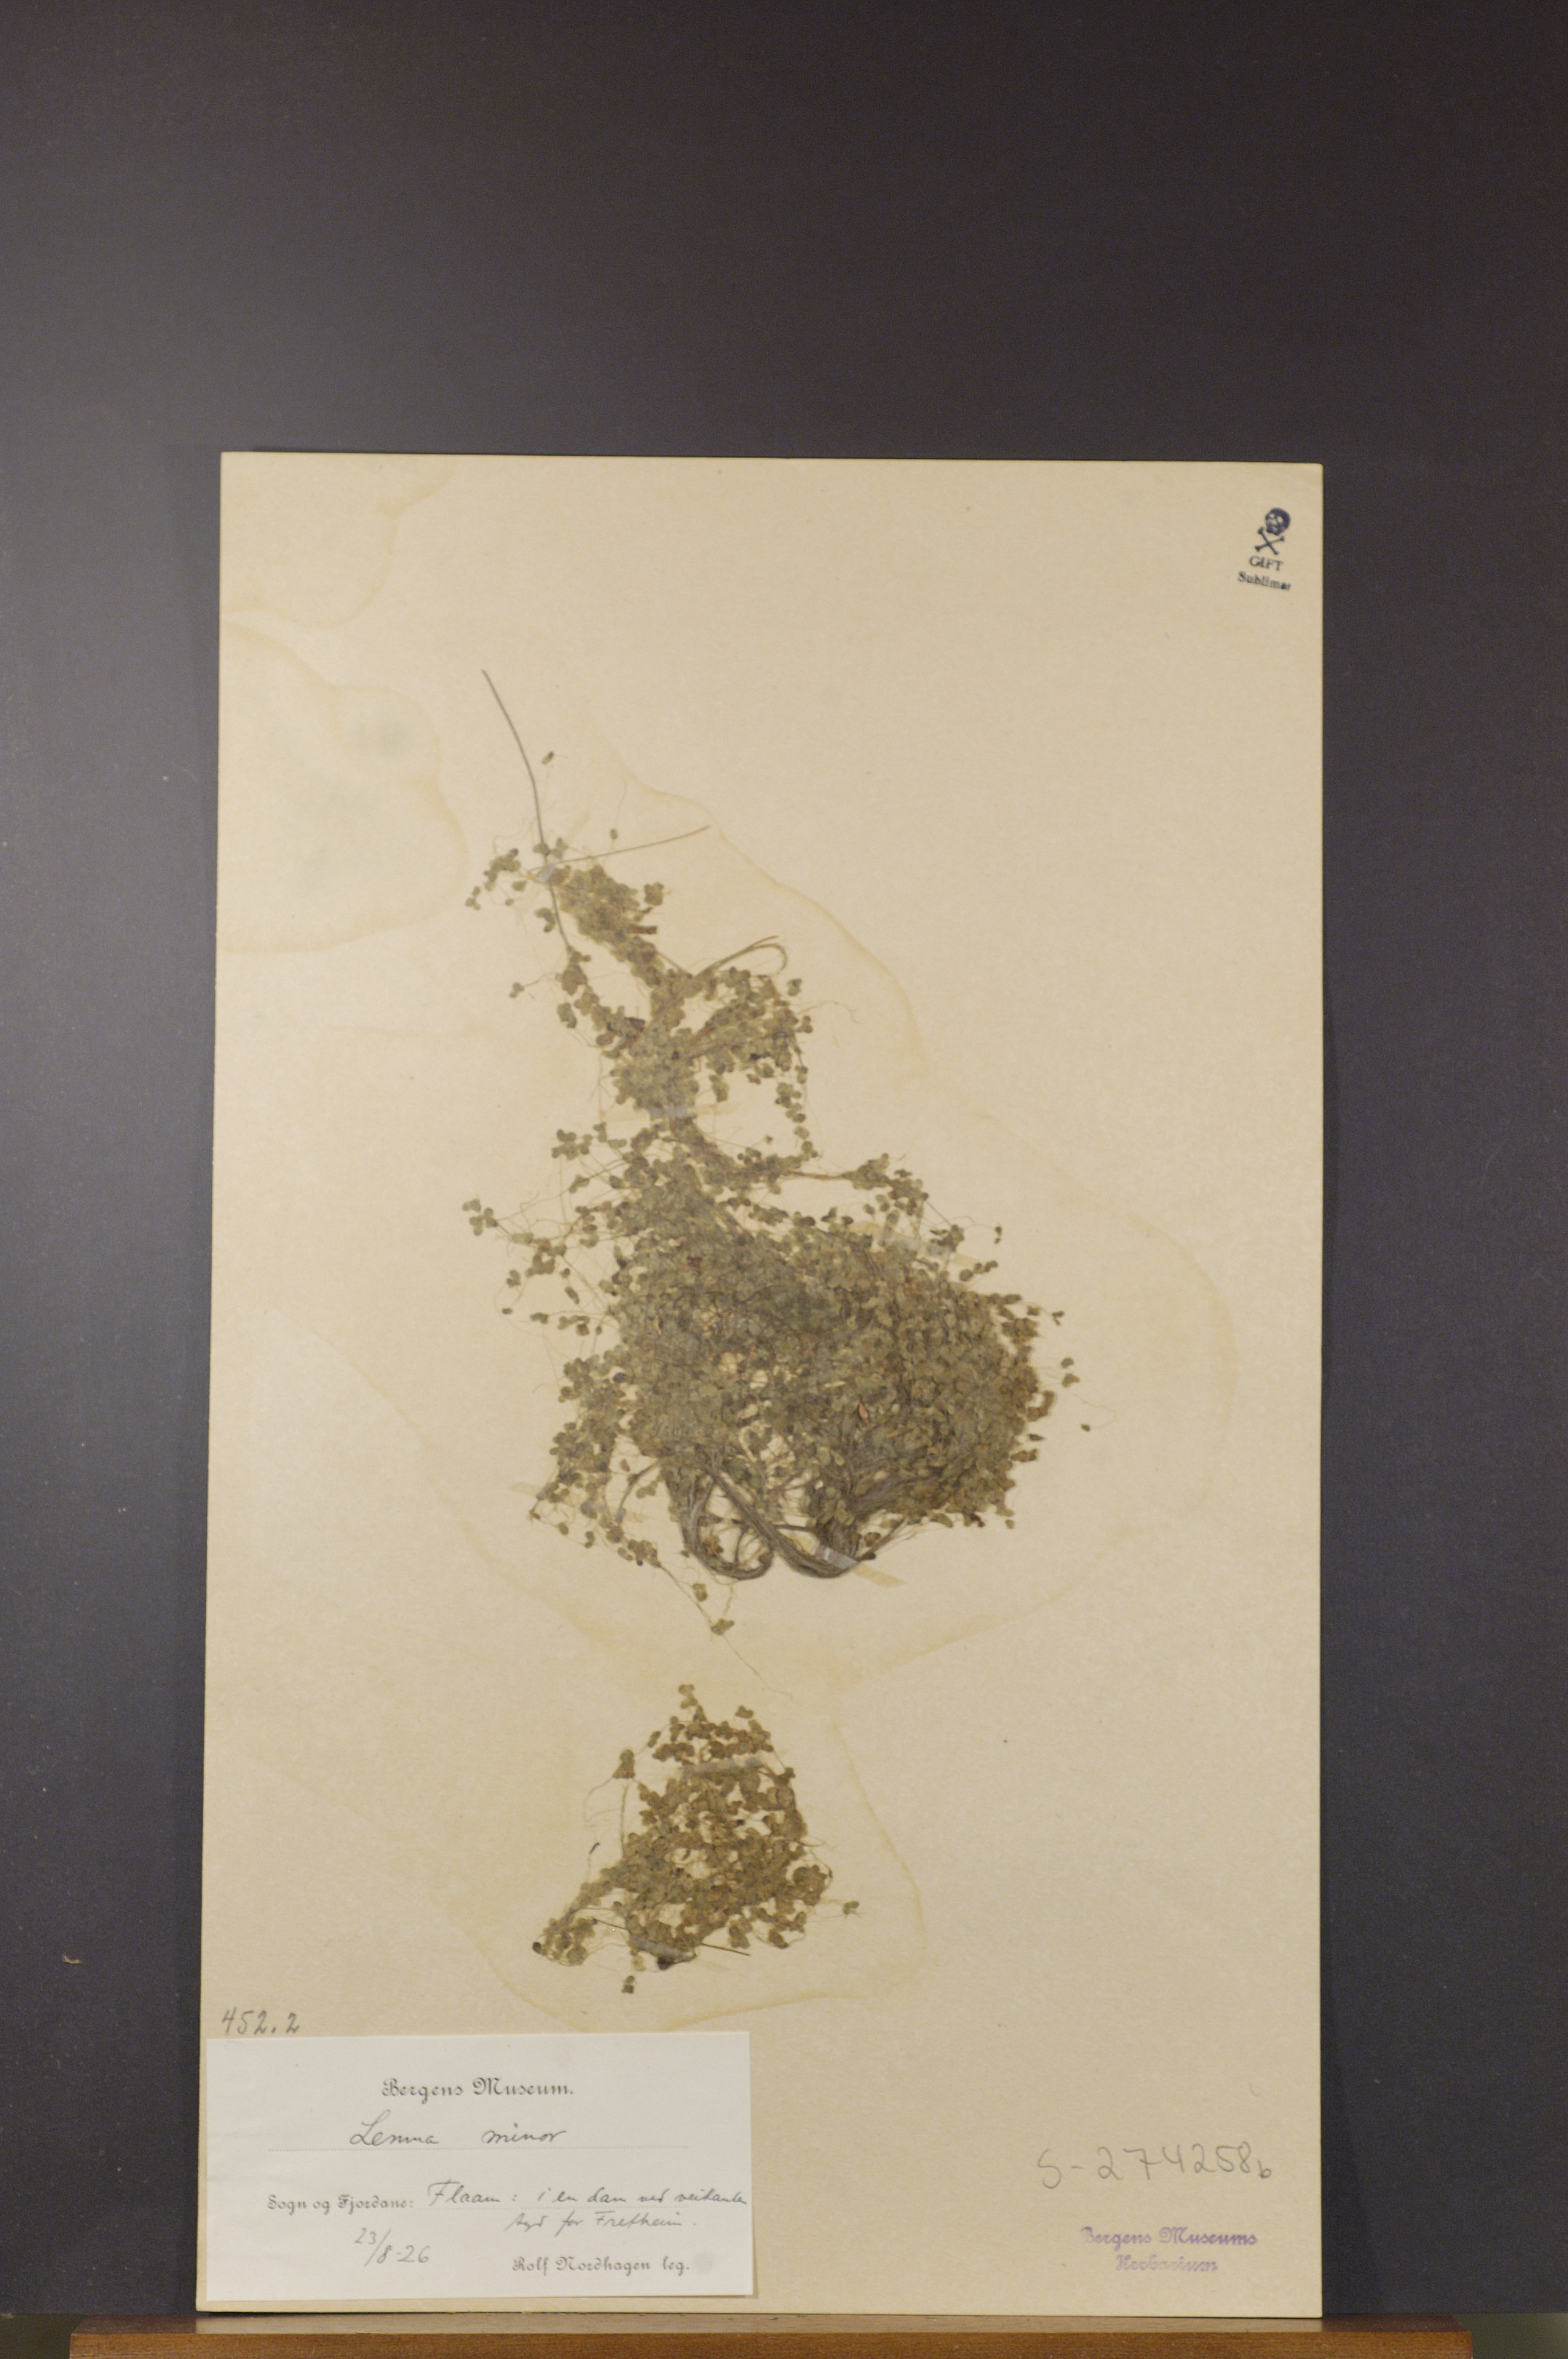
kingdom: Plantae
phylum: Tracheophyta
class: Liliopsida
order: Alismatales
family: Araceae
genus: Lemna
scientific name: Lemna minor
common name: Common duckweed
